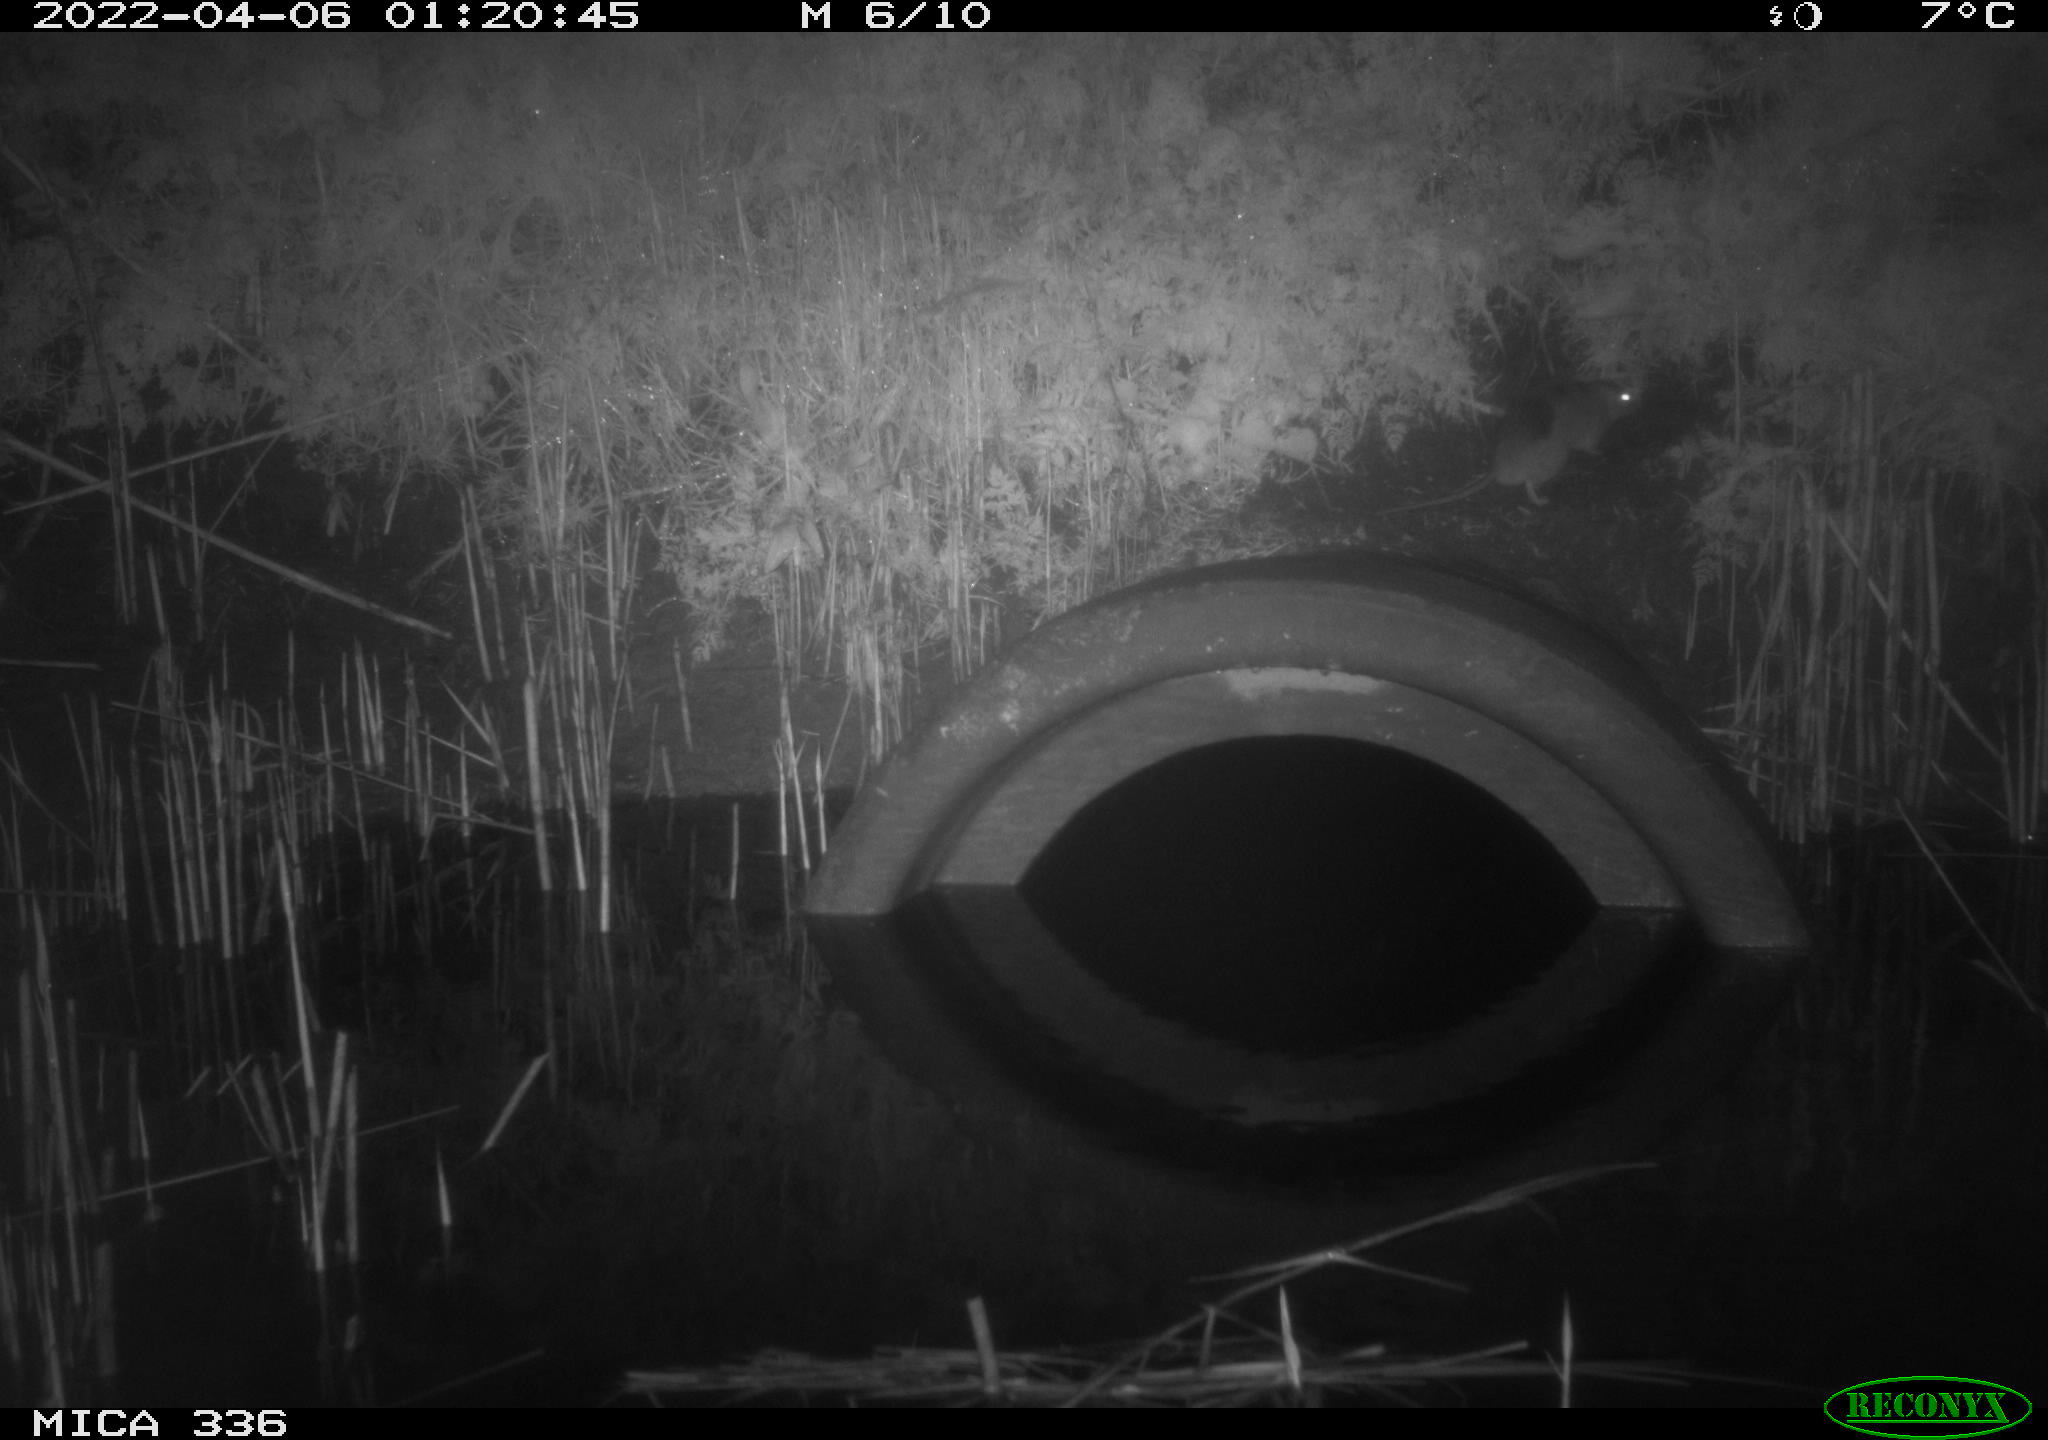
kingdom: Animalia
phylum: Chordata
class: Mammalia
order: Rodentia
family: Muridae
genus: Rattus
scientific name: Rattus norvegicus
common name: Brown rat
